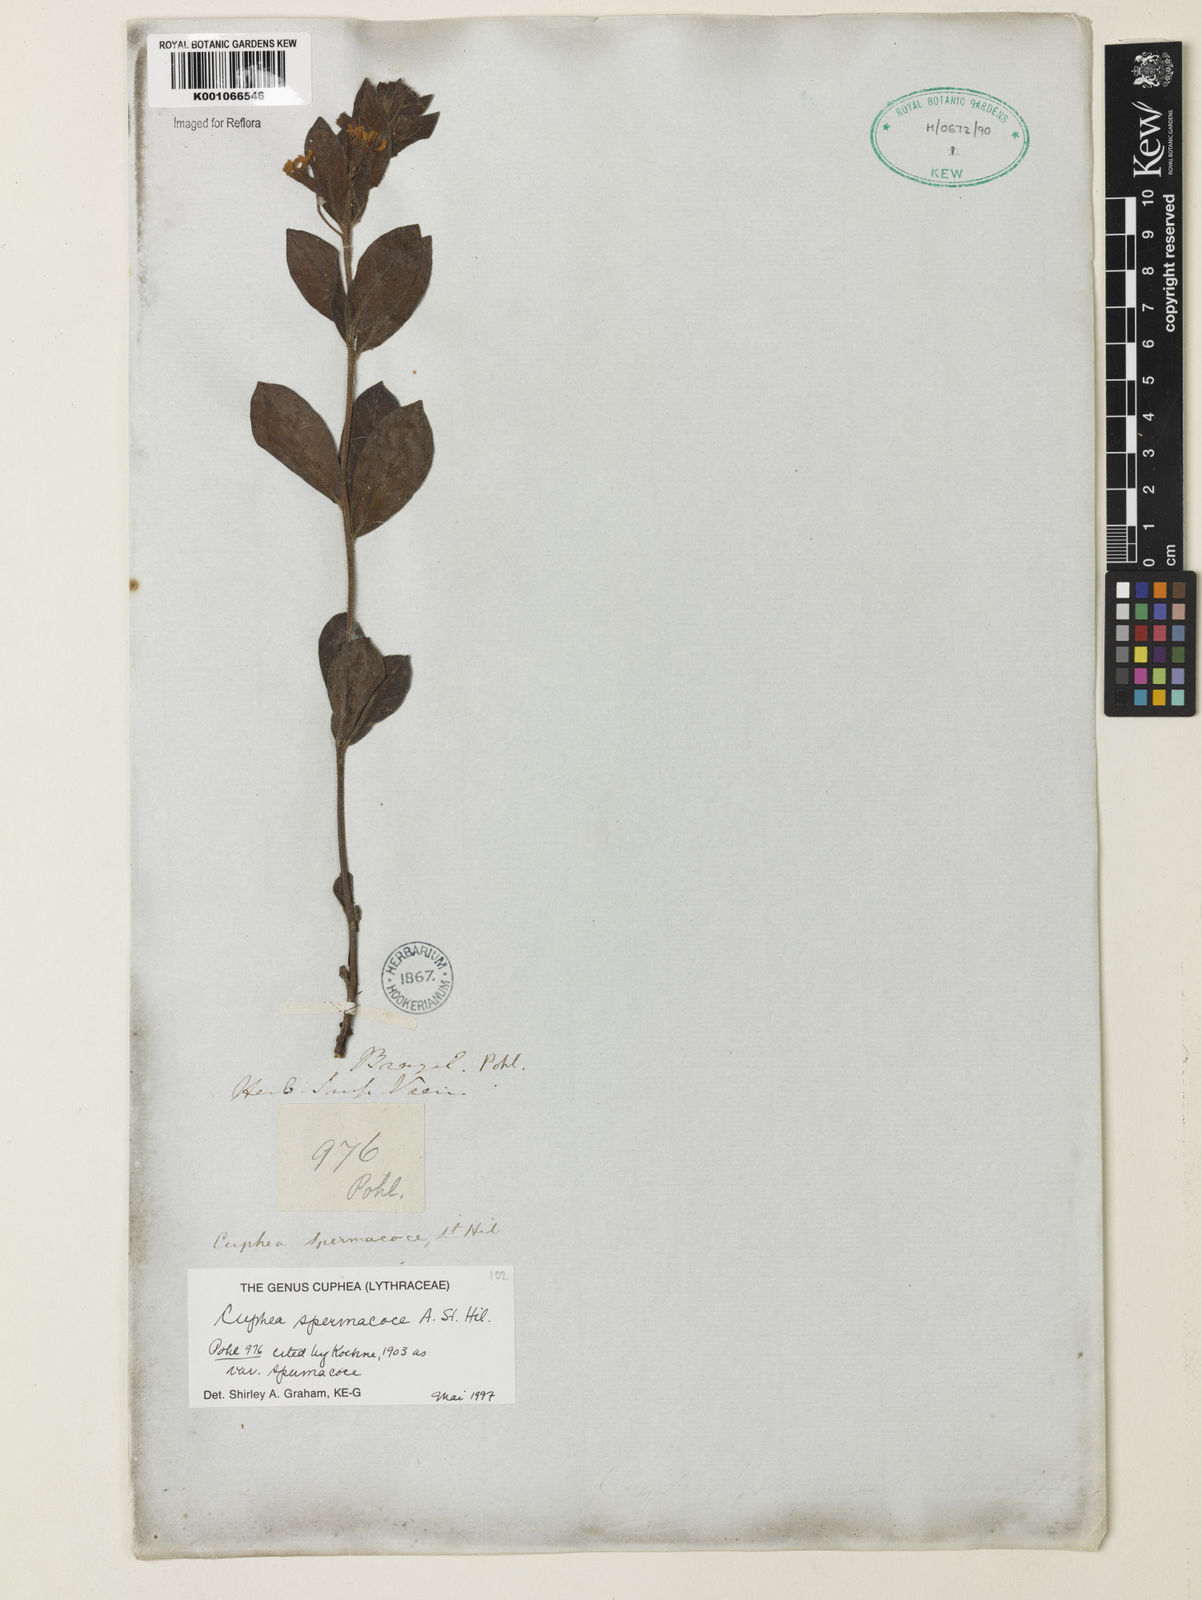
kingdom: Plantae
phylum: Tracheophyta
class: Magnoliopsida
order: Myrtales
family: Lythraceae
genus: Cuphea
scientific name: Cuphea spermacoce
